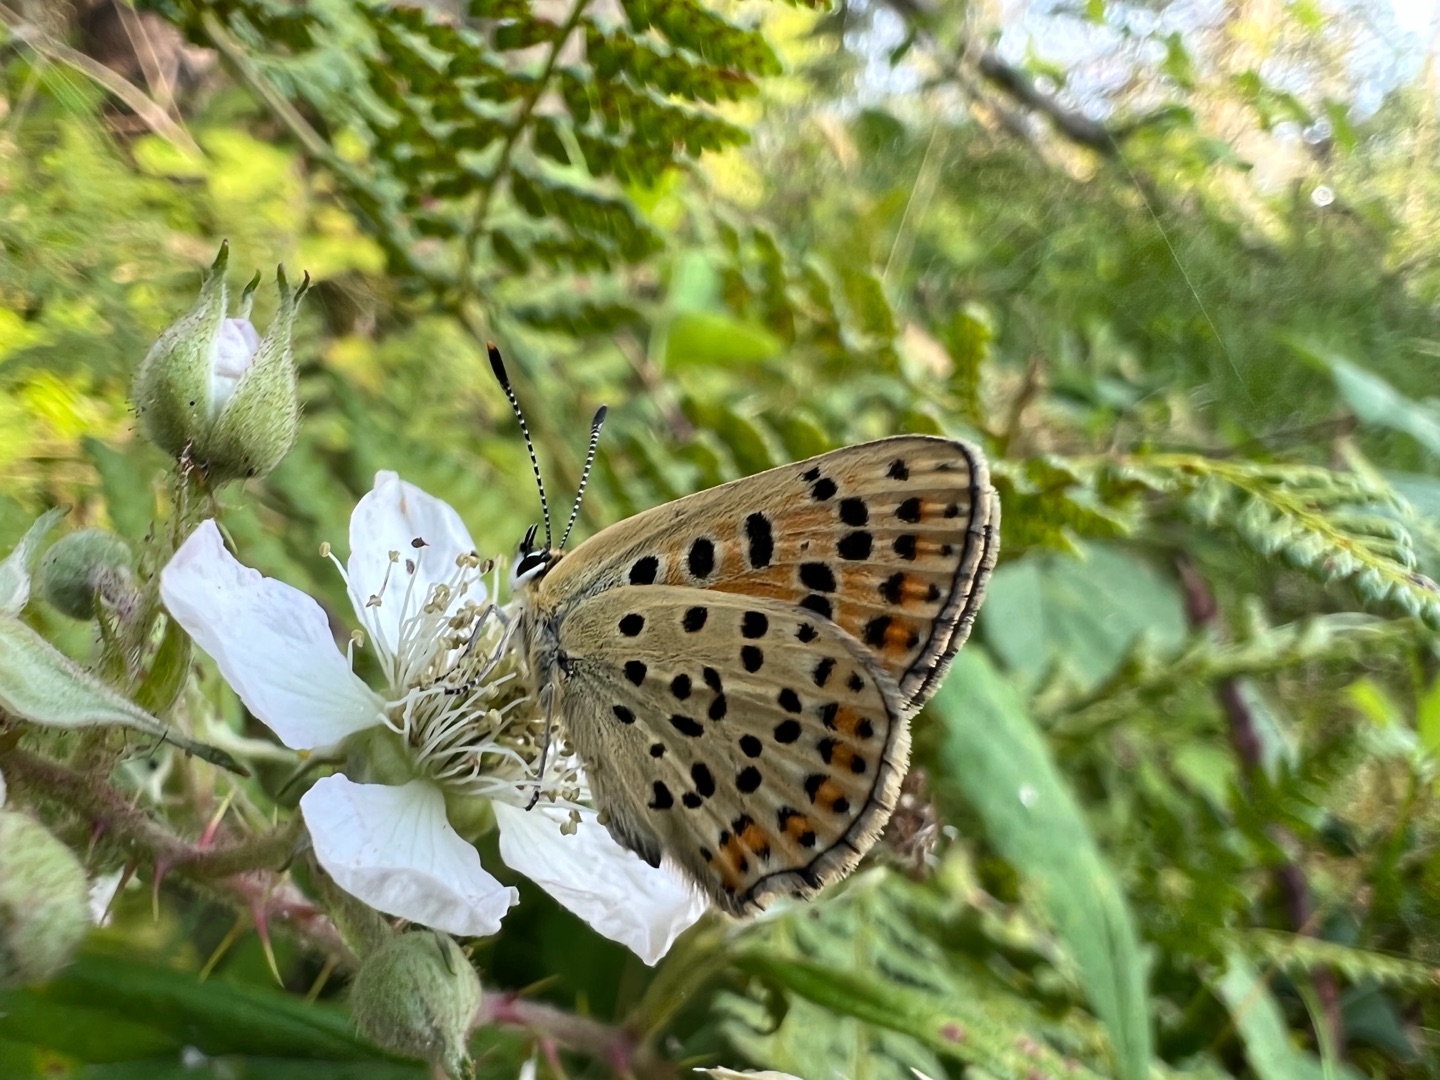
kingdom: Animalia
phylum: Arthropoda
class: Insecta
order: Lepidoptera
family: Lycaenidae
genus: Loweia
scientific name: Loweia tityrus
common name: Sort ildfugl
